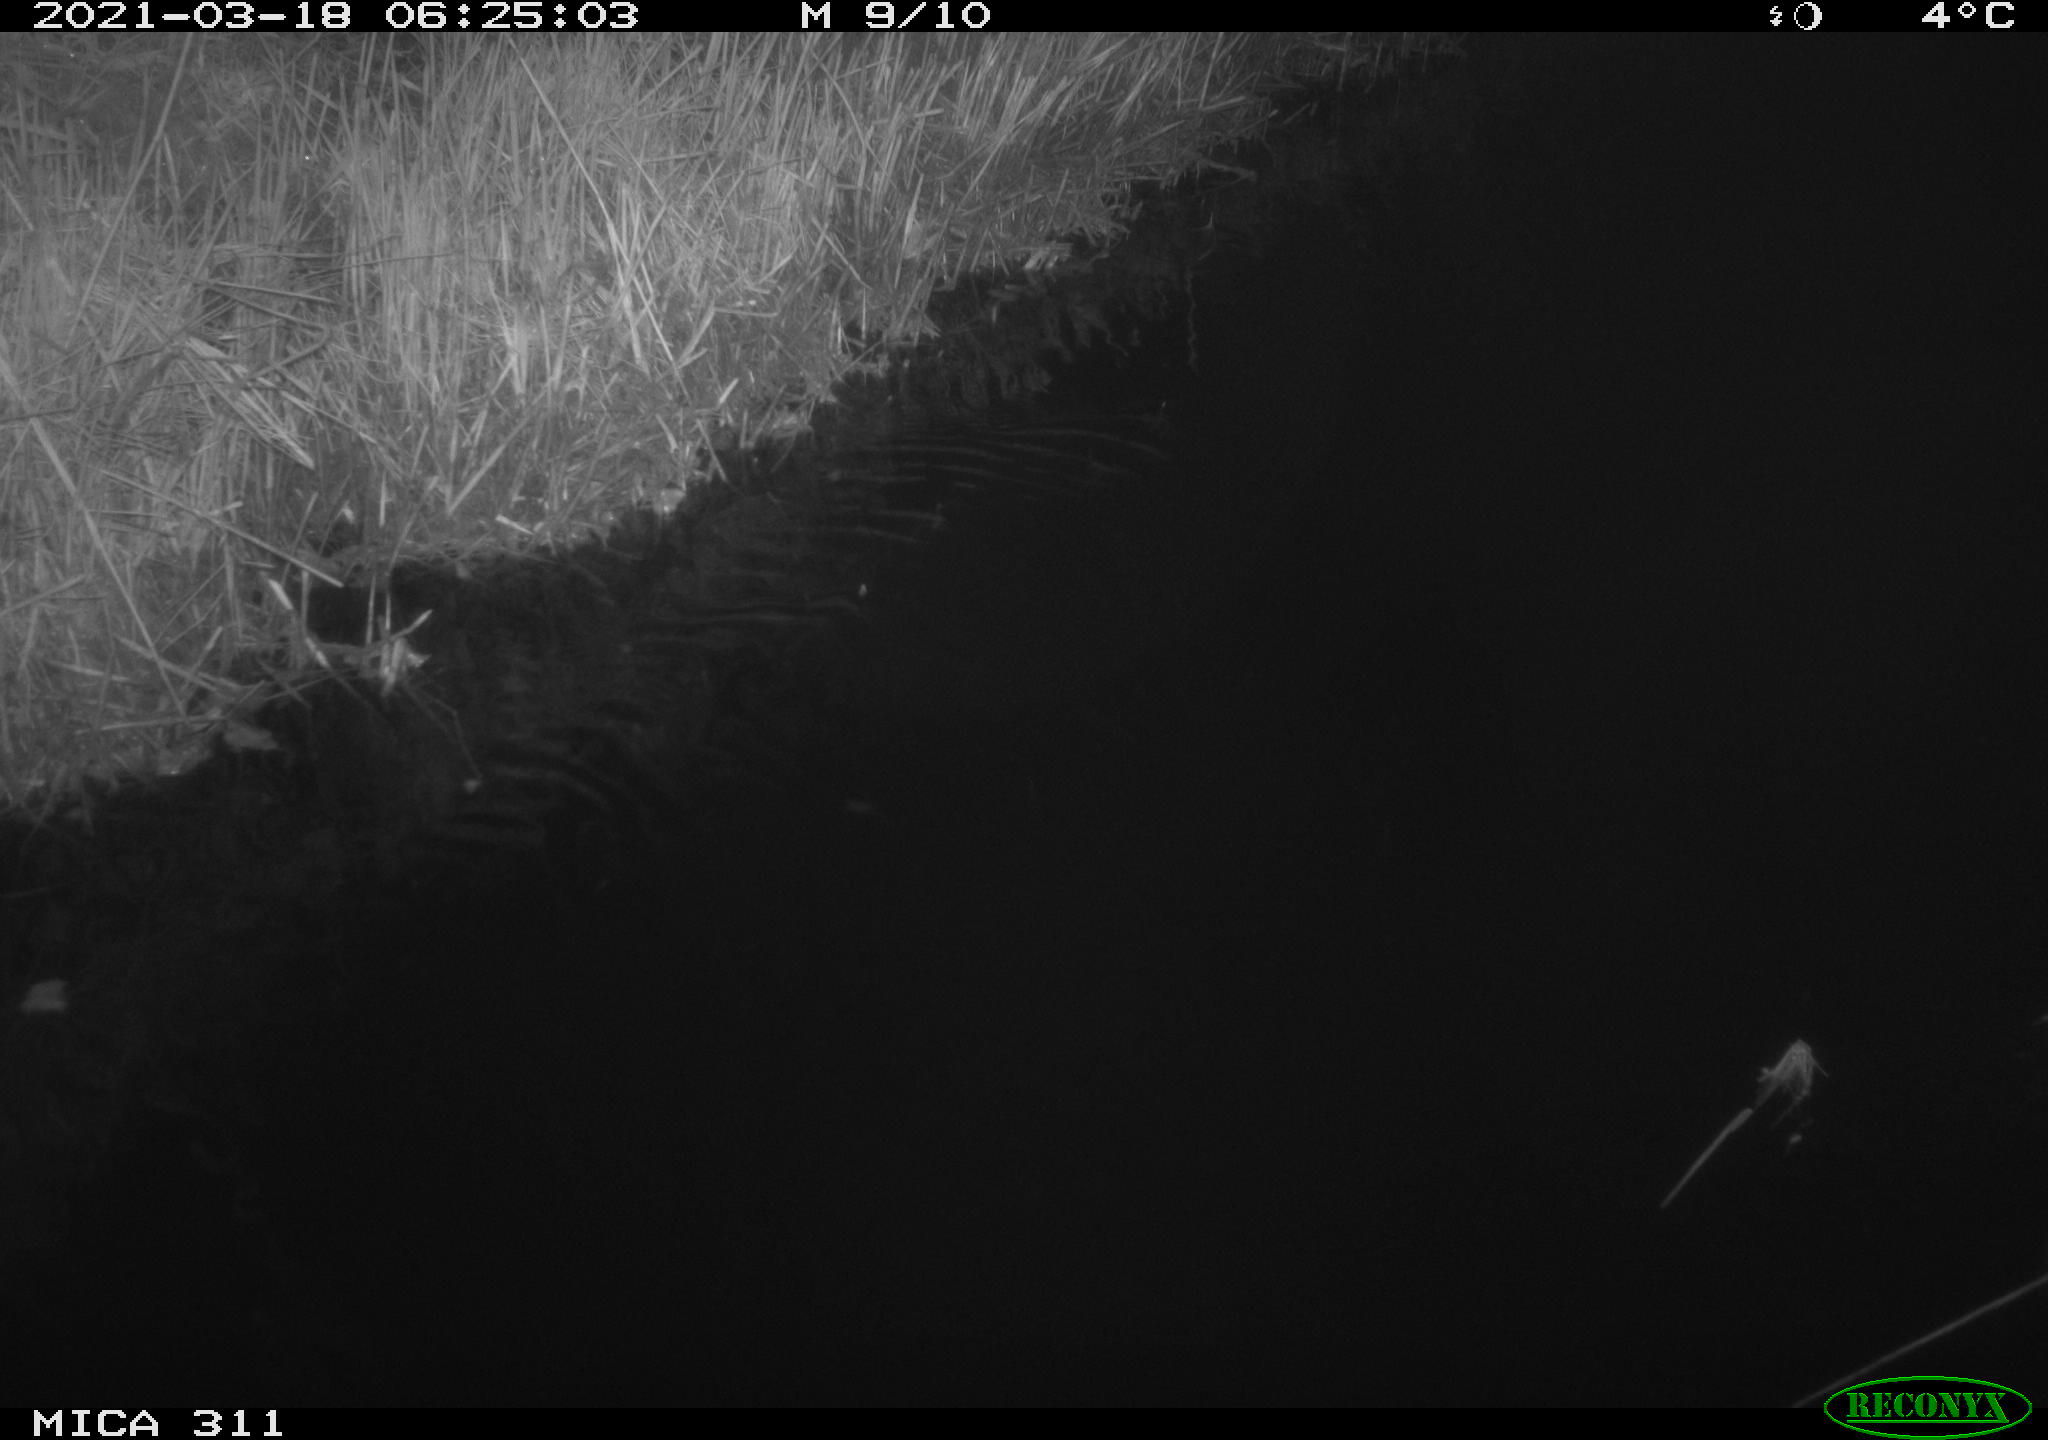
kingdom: Animalia
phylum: Chordata
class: Aves
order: Anseriformes
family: Anatidae
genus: Anas
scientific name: Anas
